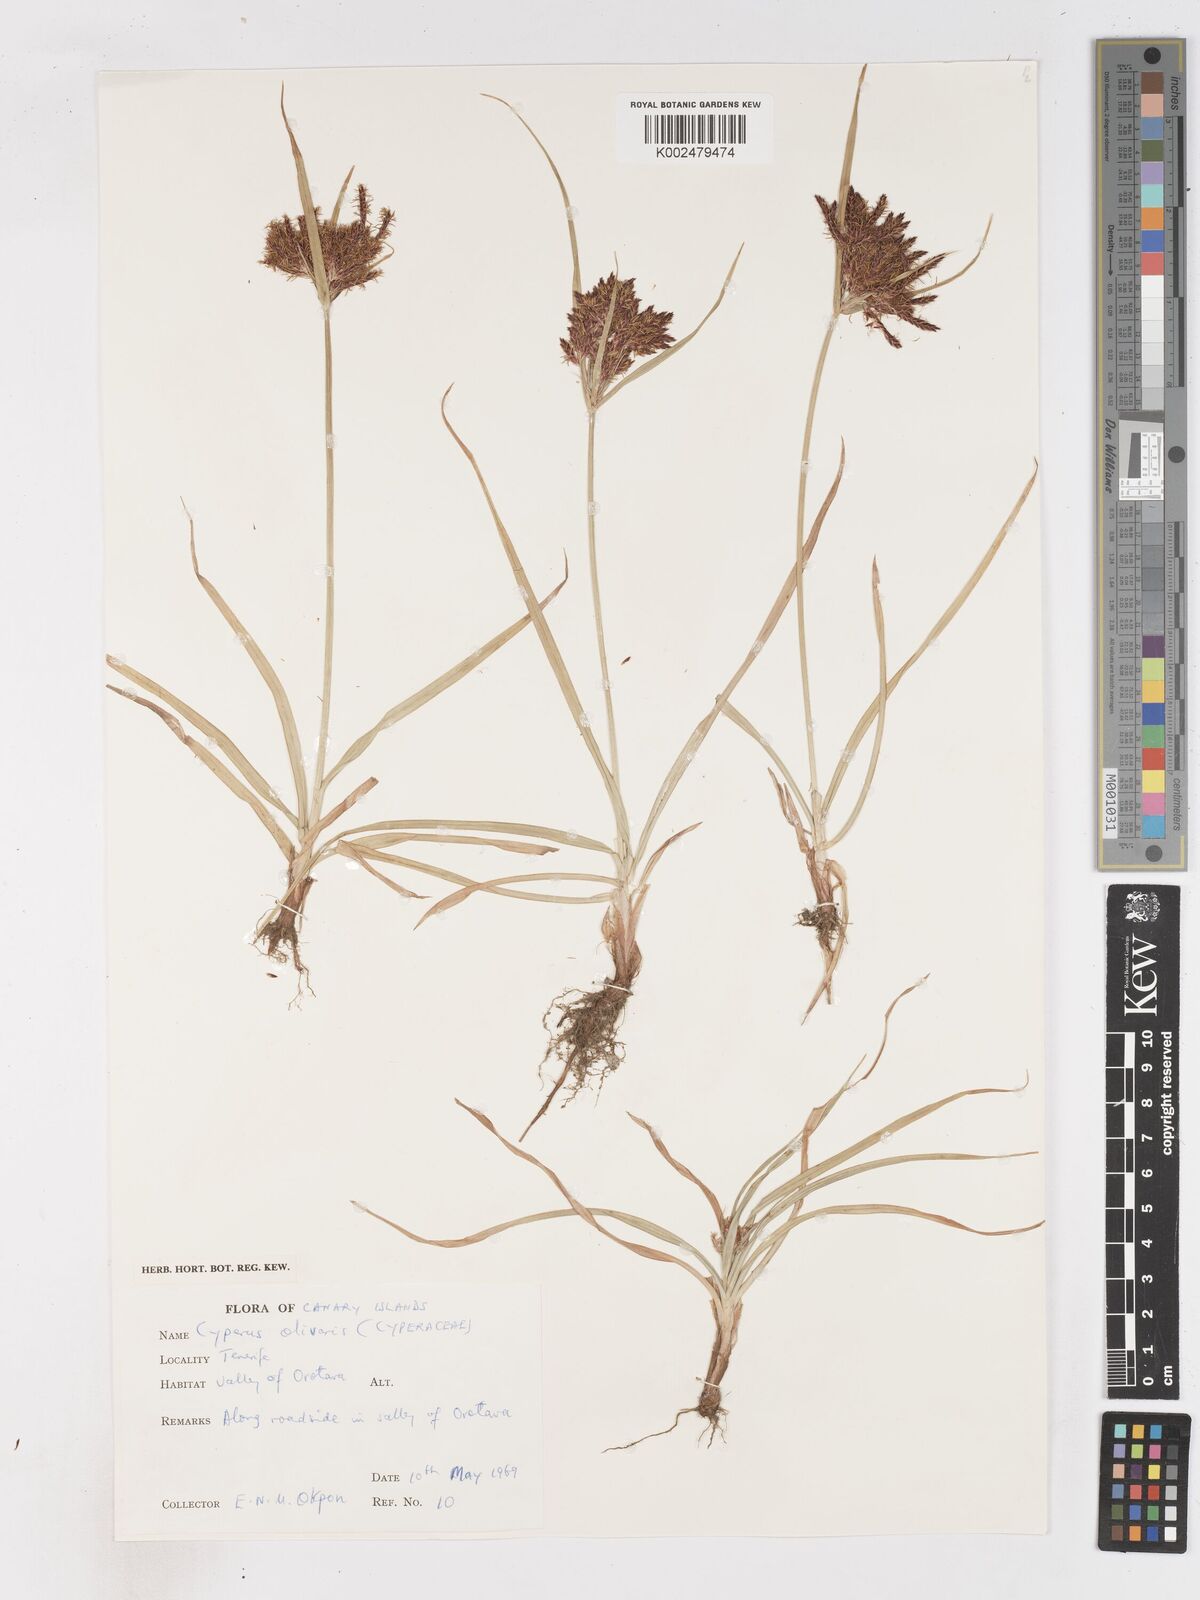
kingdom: Plantae
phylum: Tracheophyta
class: Liliopsida
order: Poales
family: Cyperaceae
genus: Cyperus
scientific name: Cyperus rotundus
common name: Nutgrass
